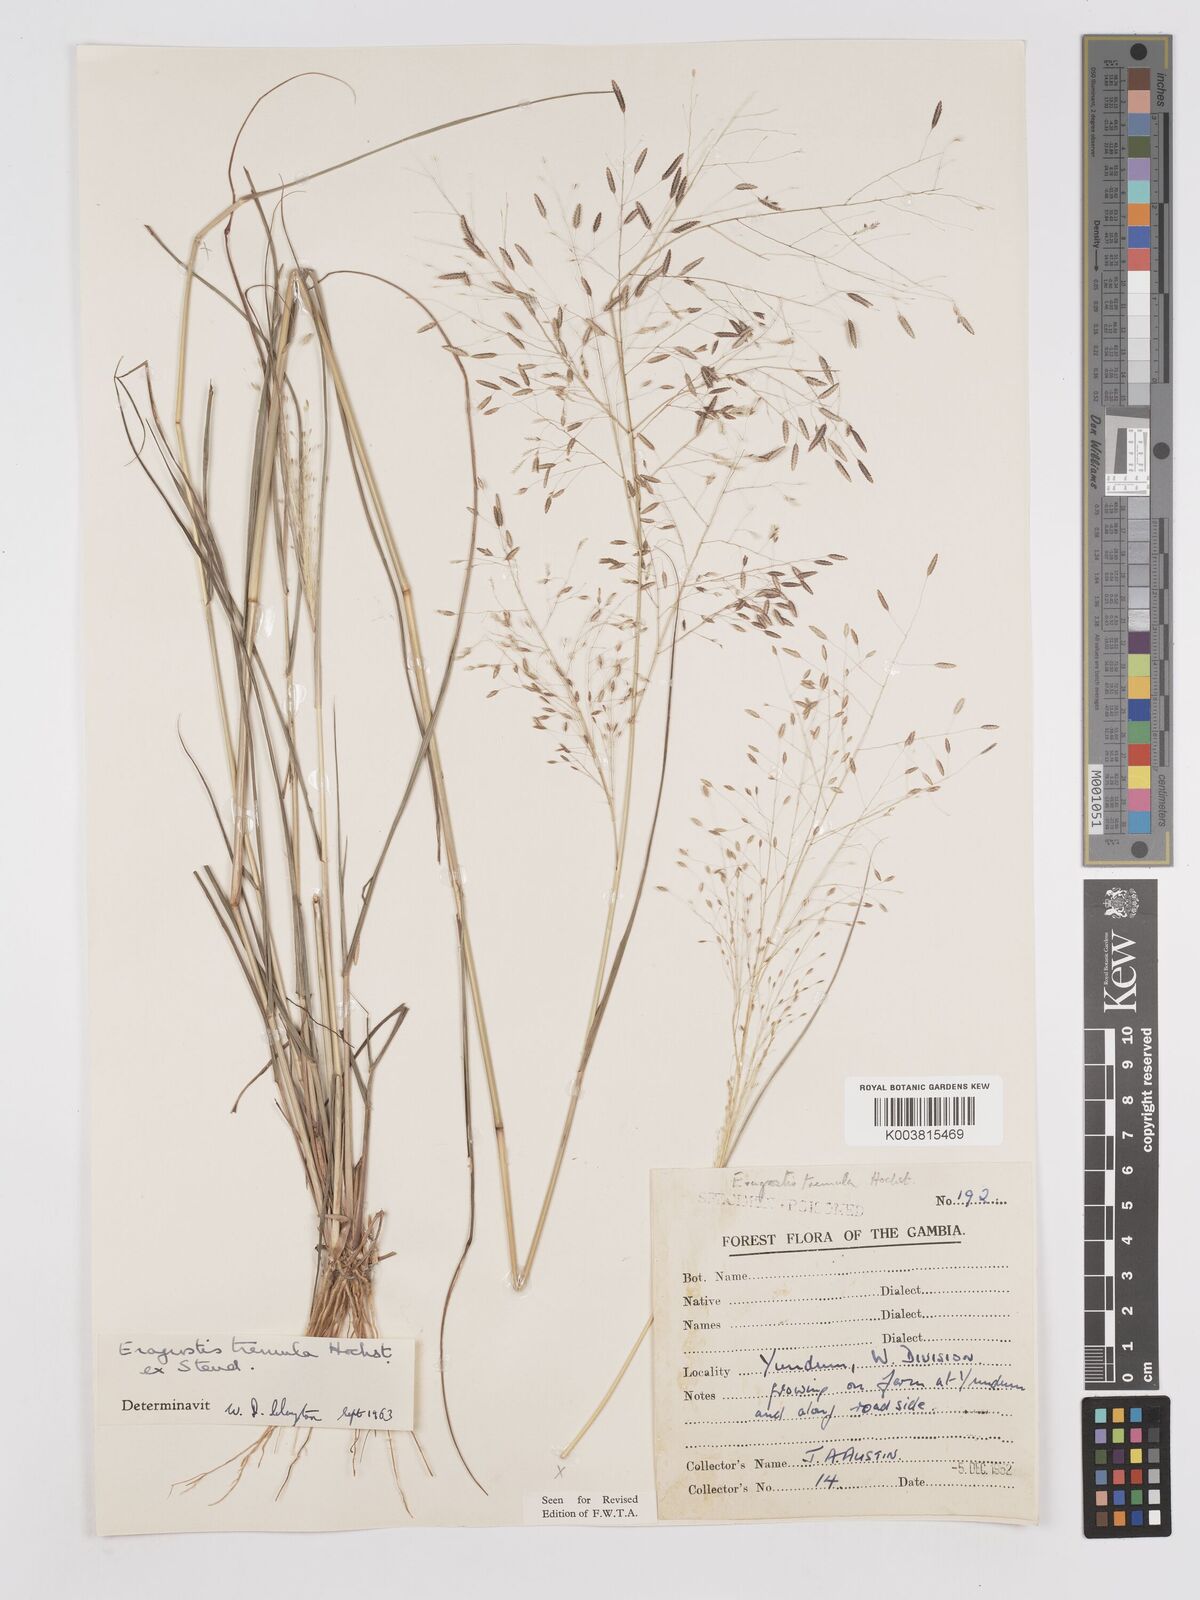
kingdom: Plantae
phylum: Tracheophyta
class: Liliopsida
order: Poales
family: Poaceae
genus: Eragrostis
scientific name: Eragrostis tremula
